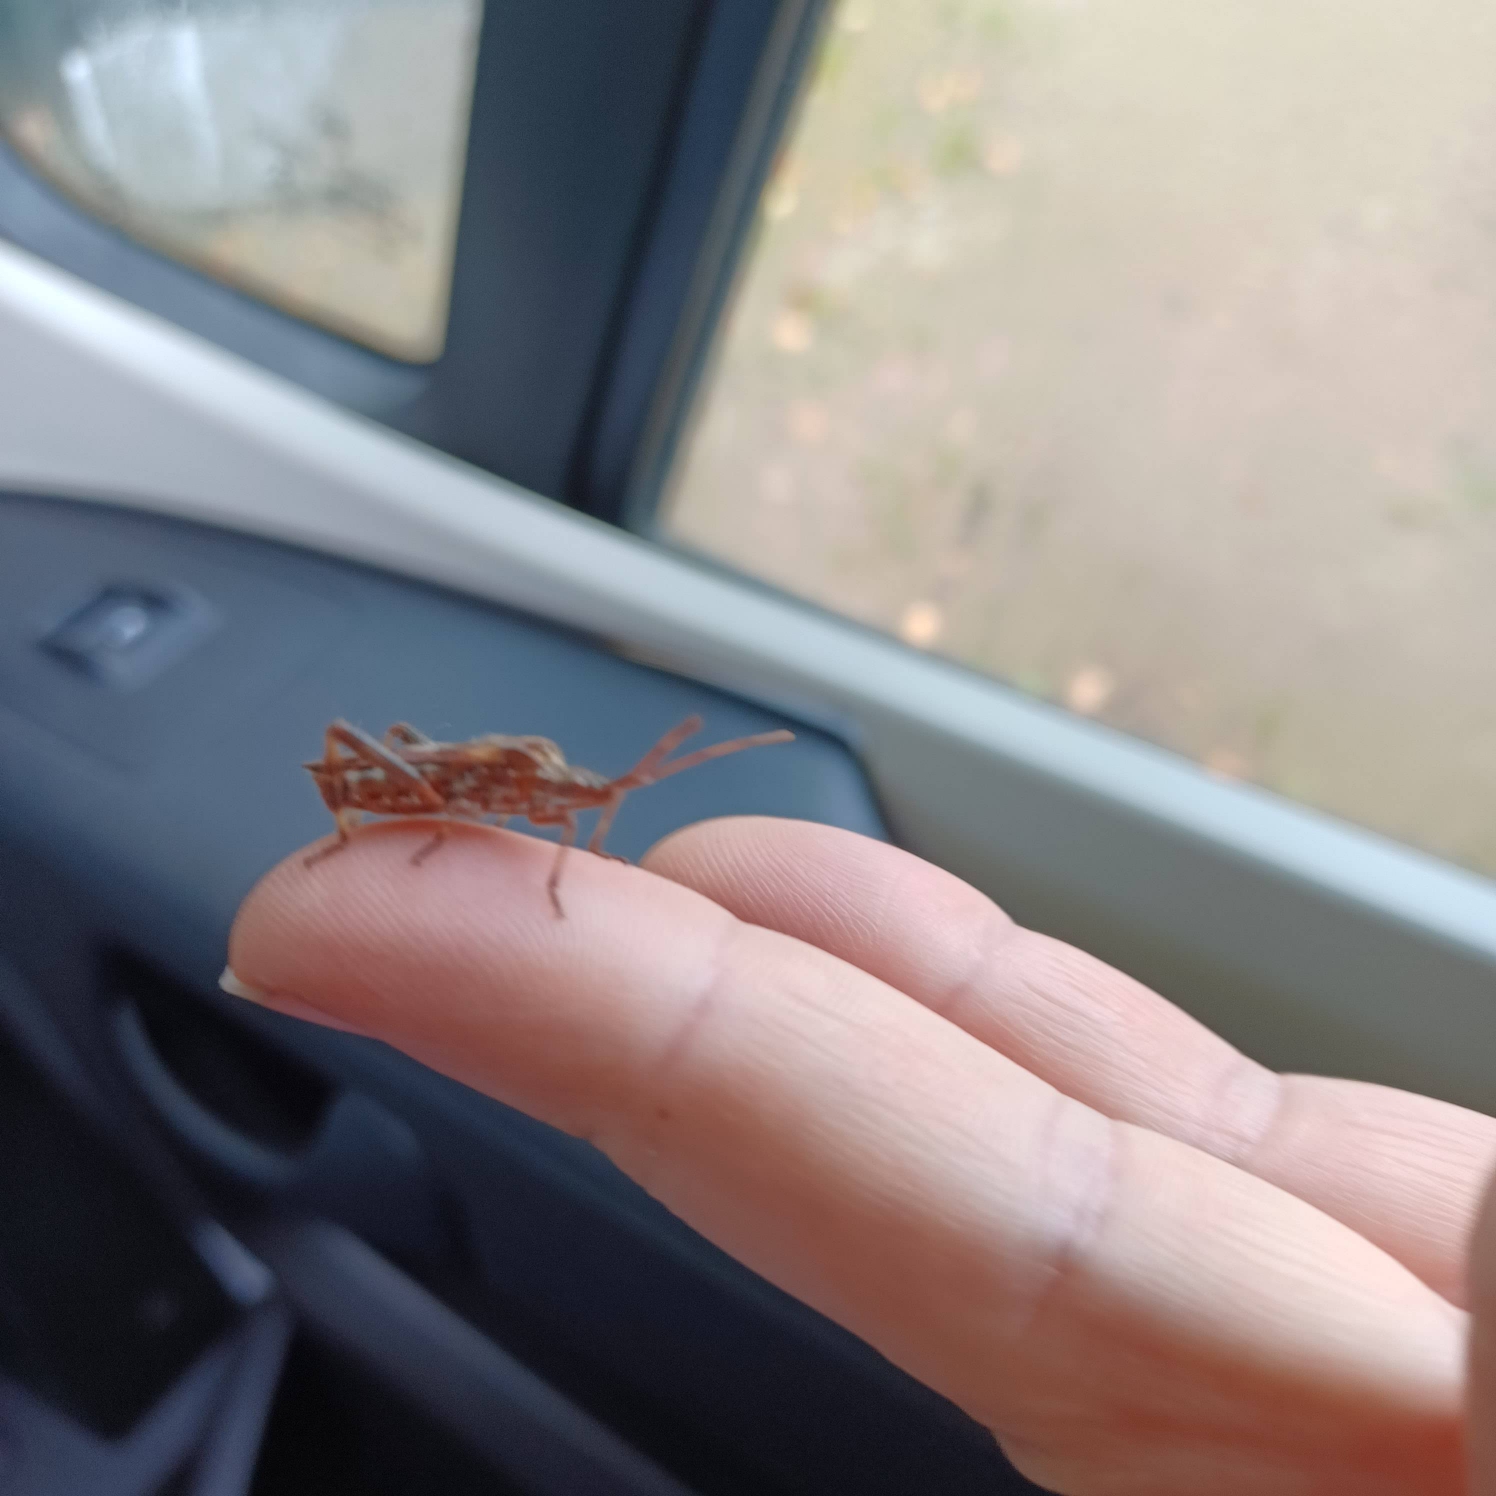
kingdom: Animalia
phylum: Arthropoda
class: Insecta
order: Hemiptera
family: Coreidae
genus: Leptoglossus
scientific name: Leptoglossus occidentalis
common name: Amerikansk fyrretæge
